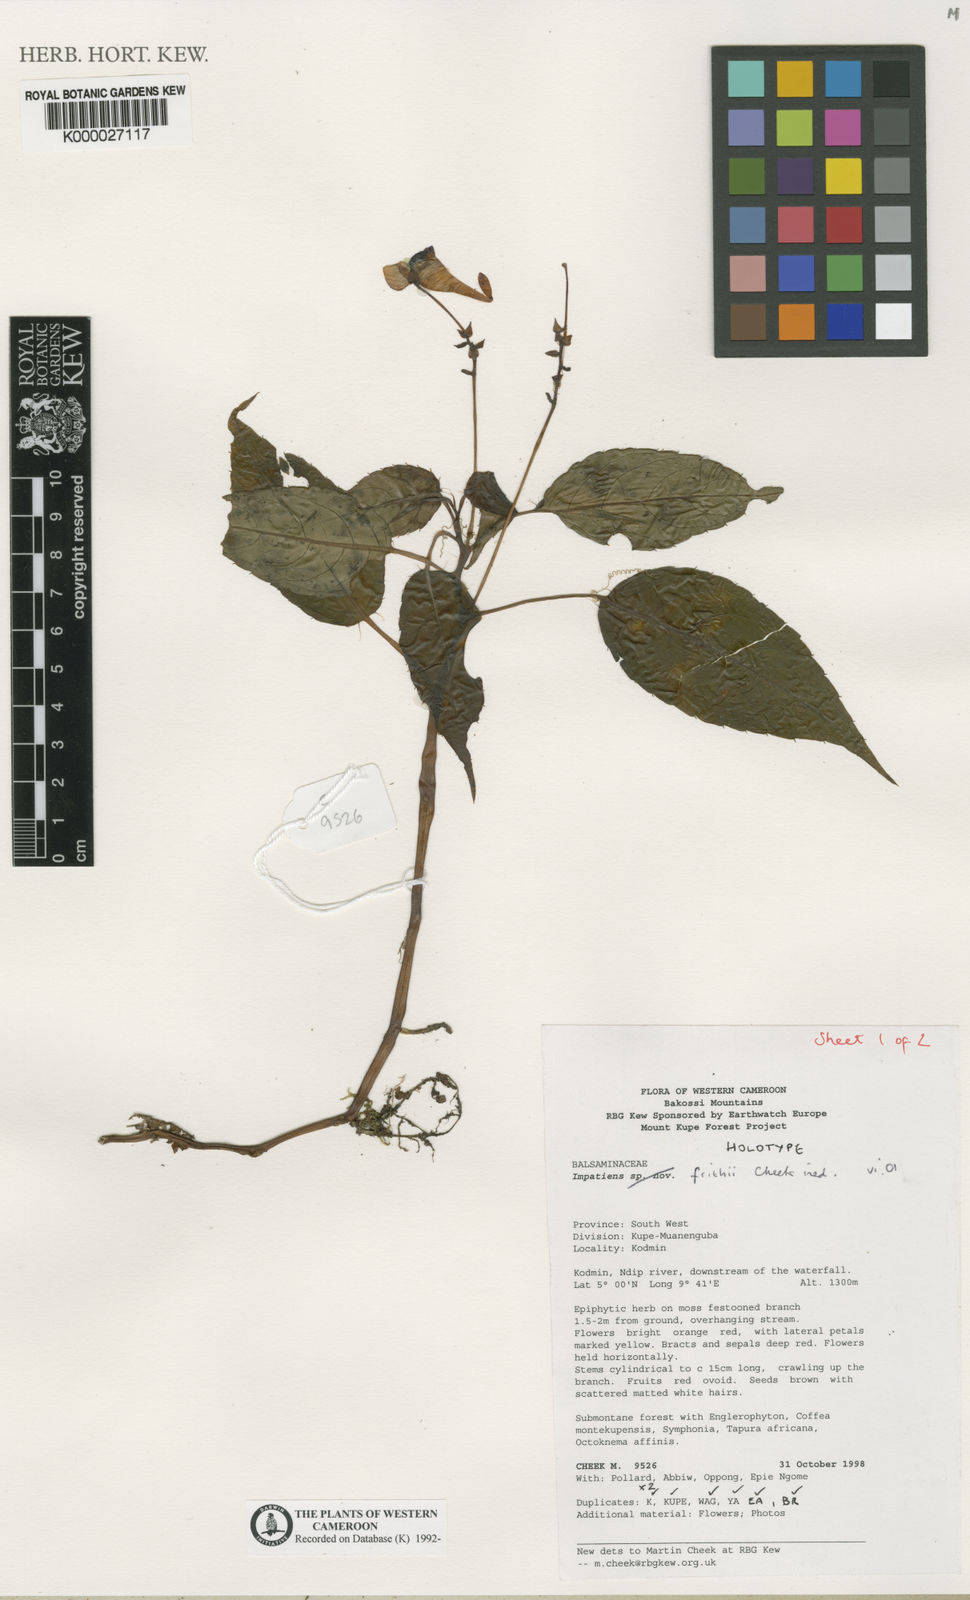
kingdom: Plantae
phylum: Tracheophyta
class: Magnoliopsida
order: Ericales
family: Balsaminaceae
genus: Impatiens
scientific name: Impatiens frithii
